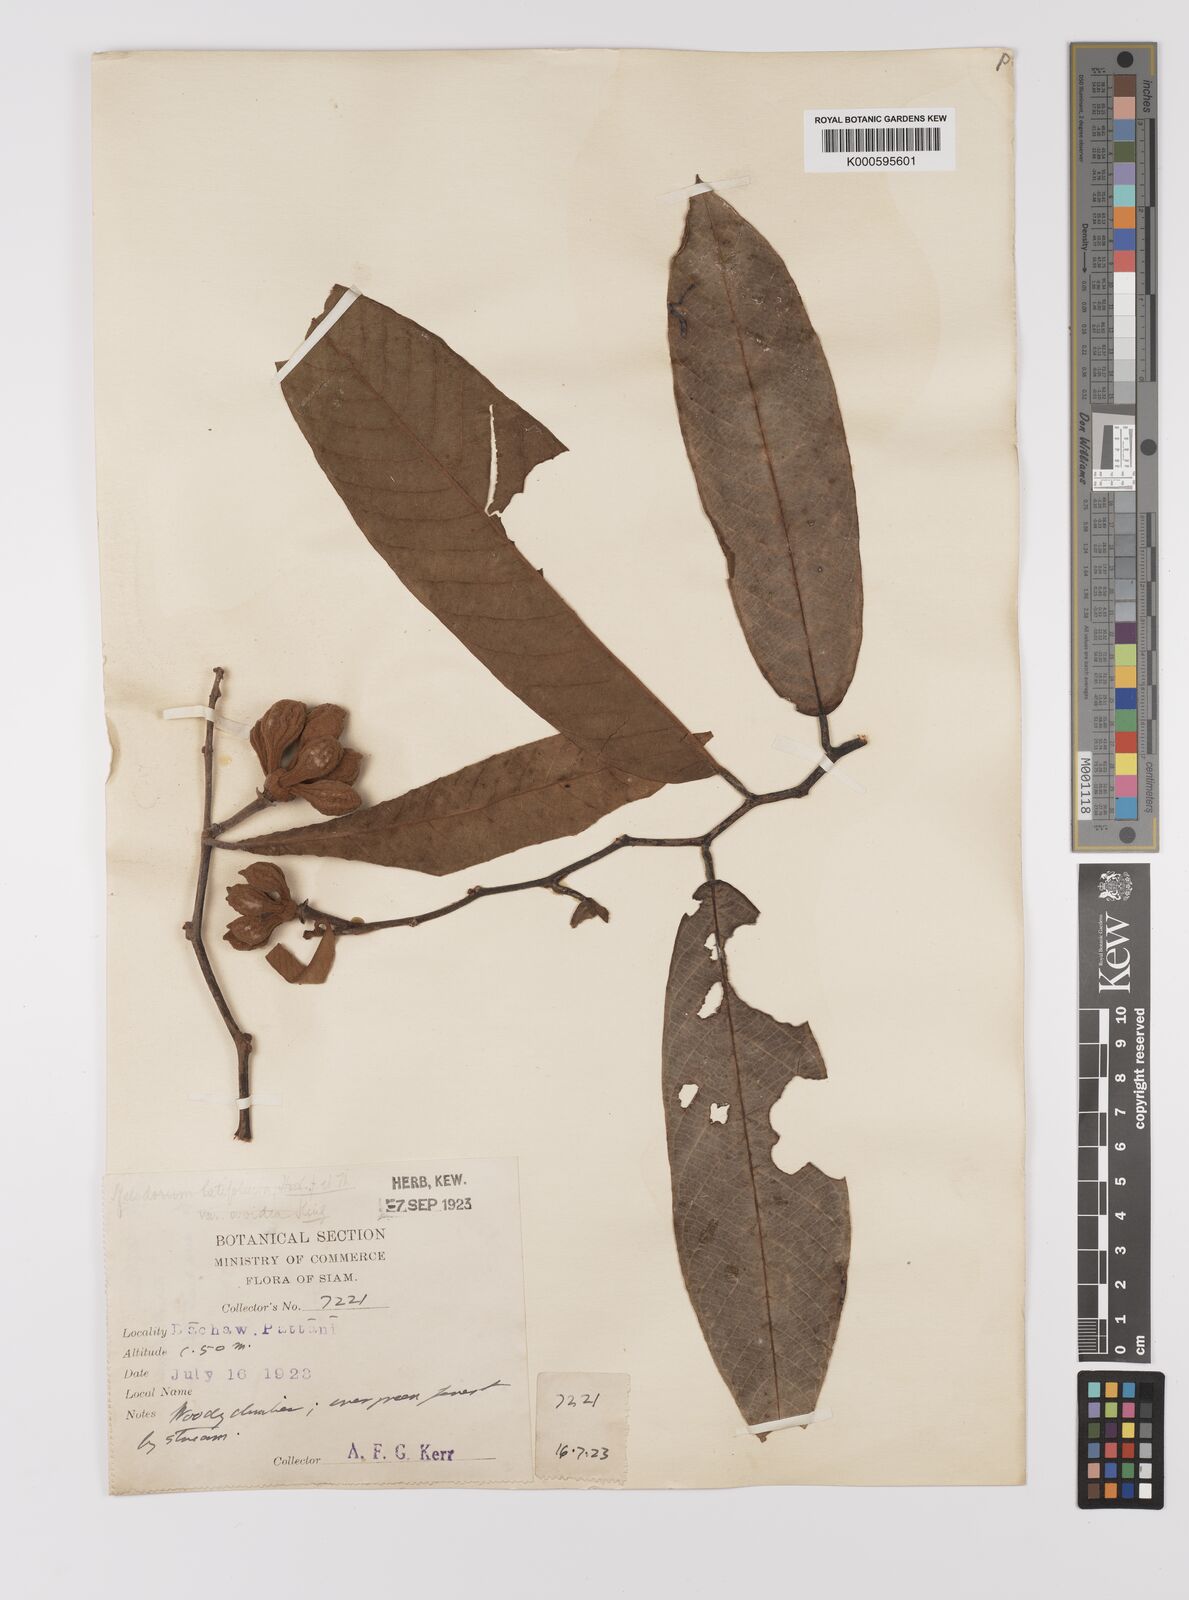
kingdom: Plantae
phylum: Tracheophyta
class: Magnoliopsida
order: Magnoliales
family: Annonaceae
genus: Fissistigma
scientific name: Fissistigma latifolium
